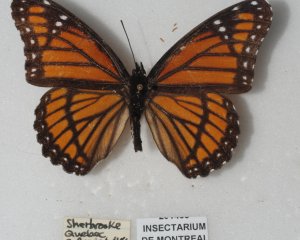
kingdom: Animalia
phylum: Arthropoda
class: Insecta
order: Lepidoptera
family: Nymphalidae
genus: Limenitis
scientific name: Limenitis archippus
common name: Viceroy
